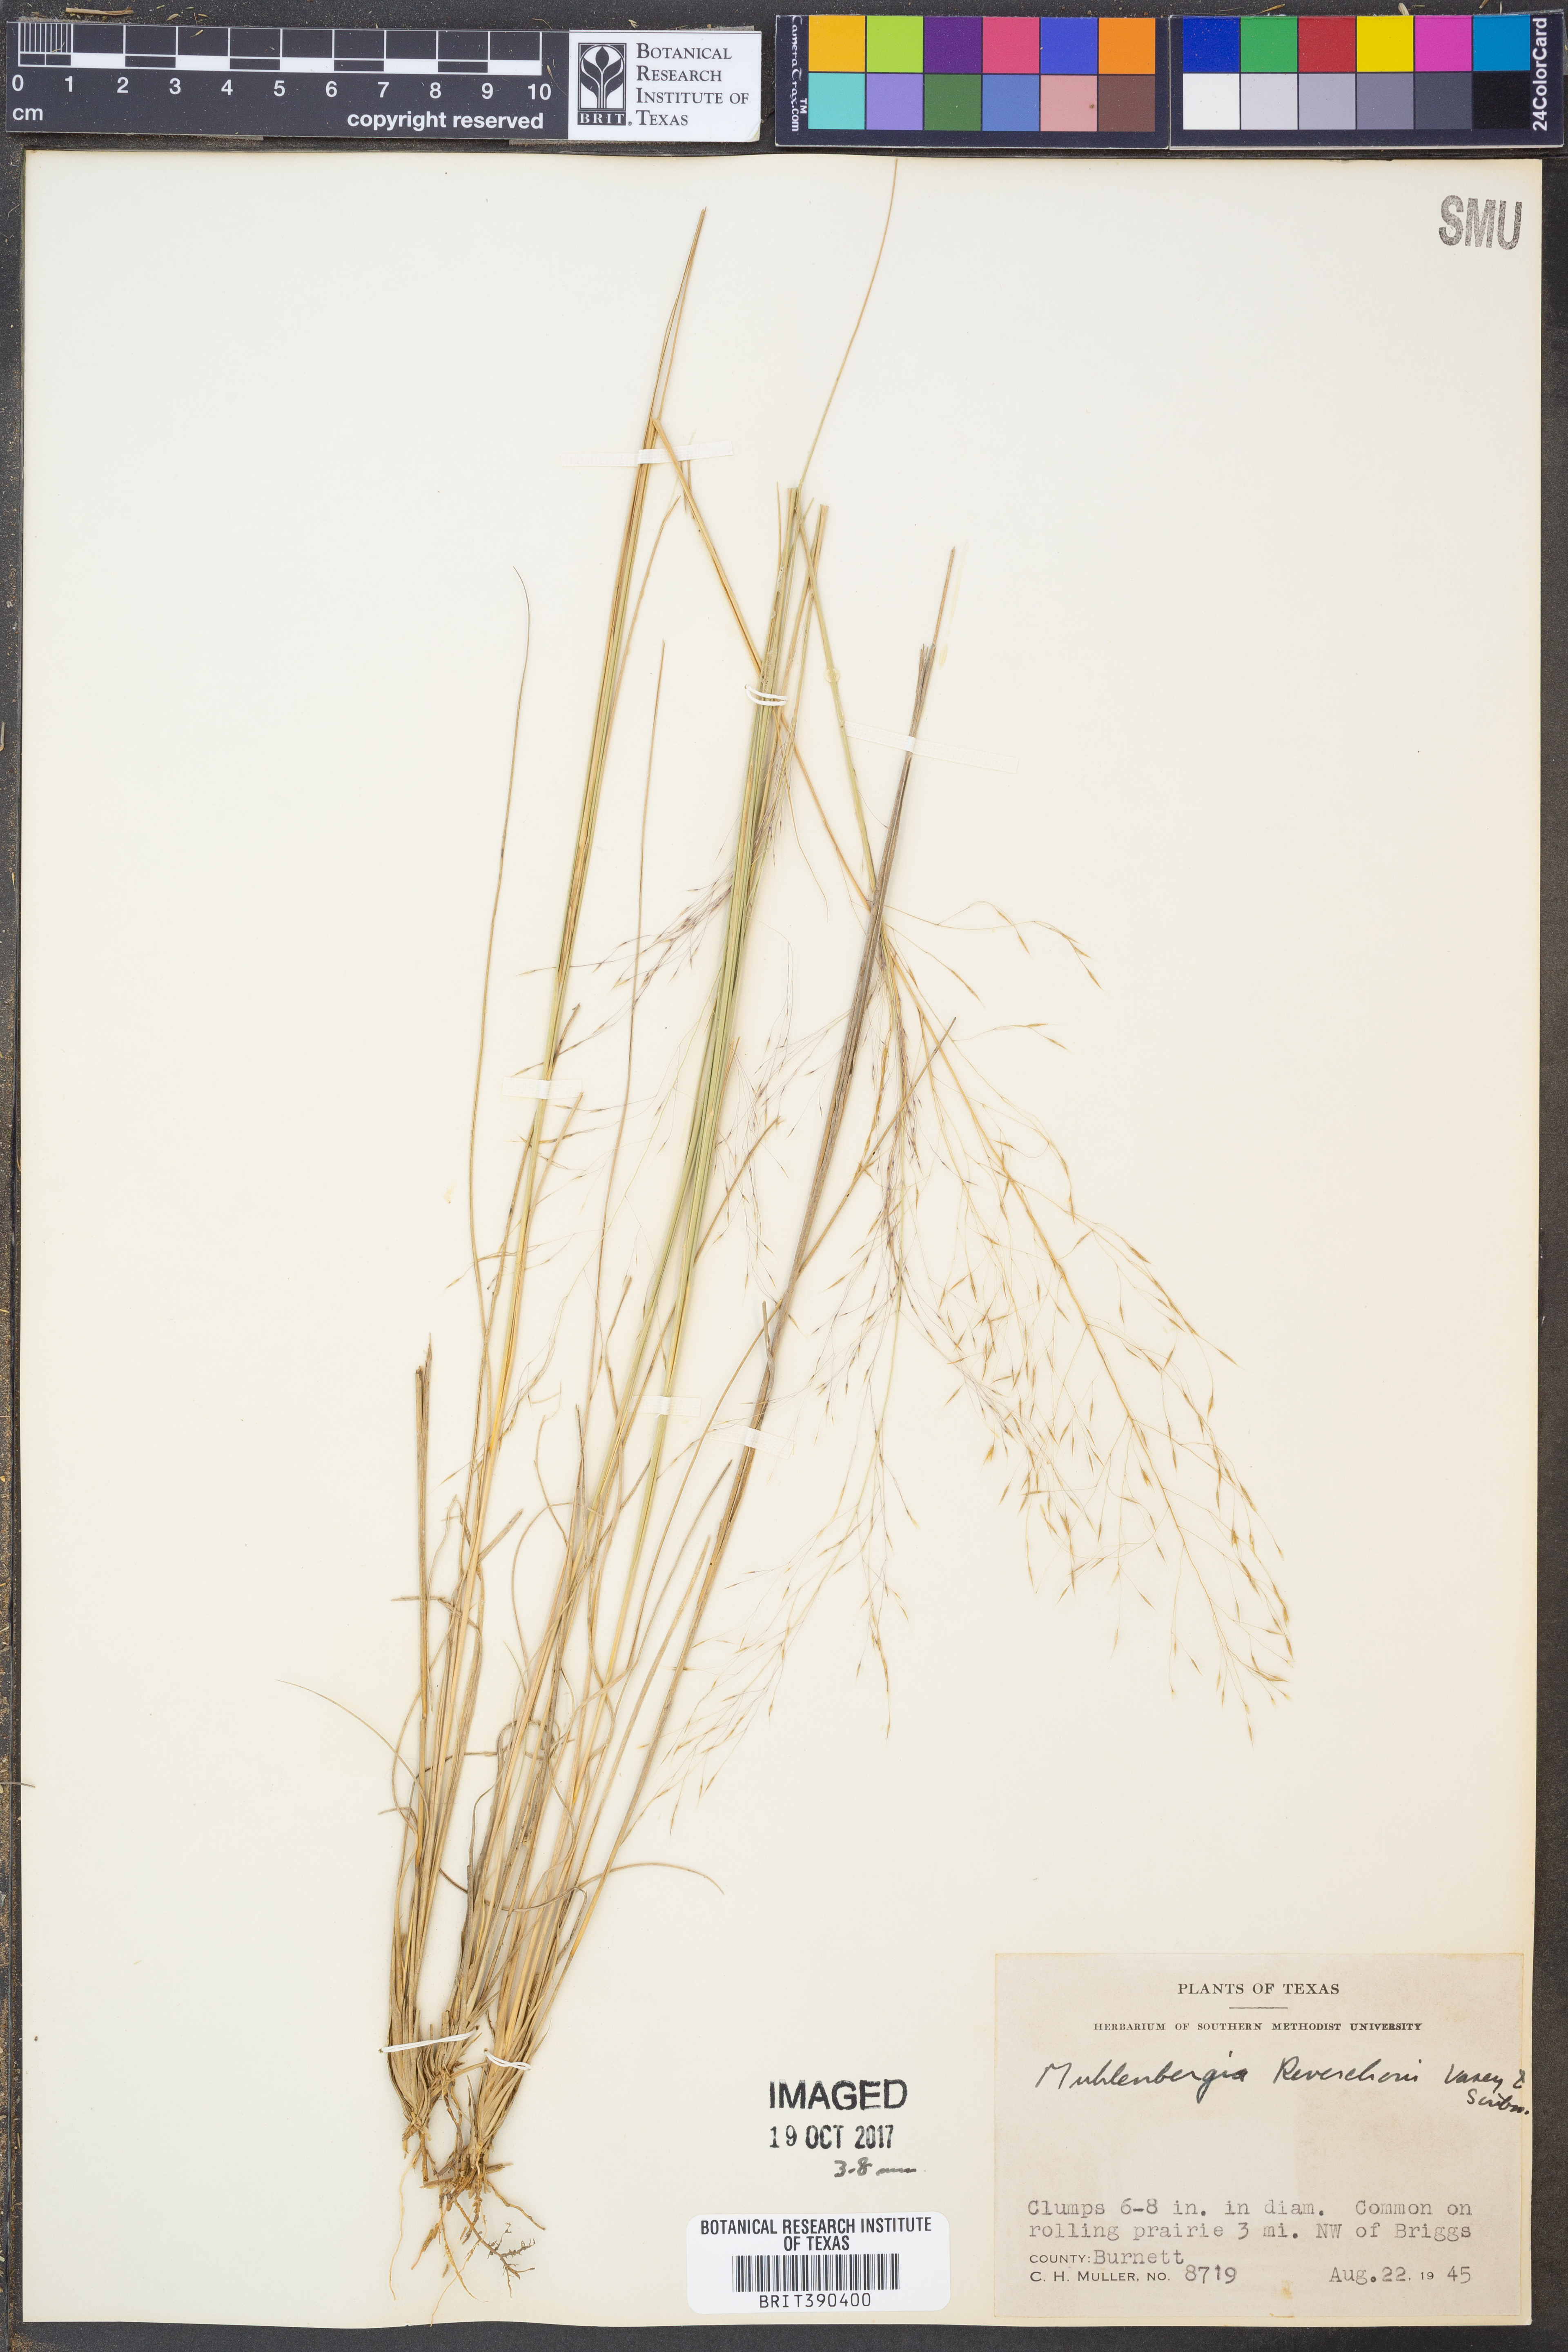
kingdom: Plantae
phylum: Tracheophyta
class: Liliopsida
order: Poales
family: Poaceae
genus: Muhlenbergia
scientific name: Muhlenbergia reverchonii
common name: Seep muhly
